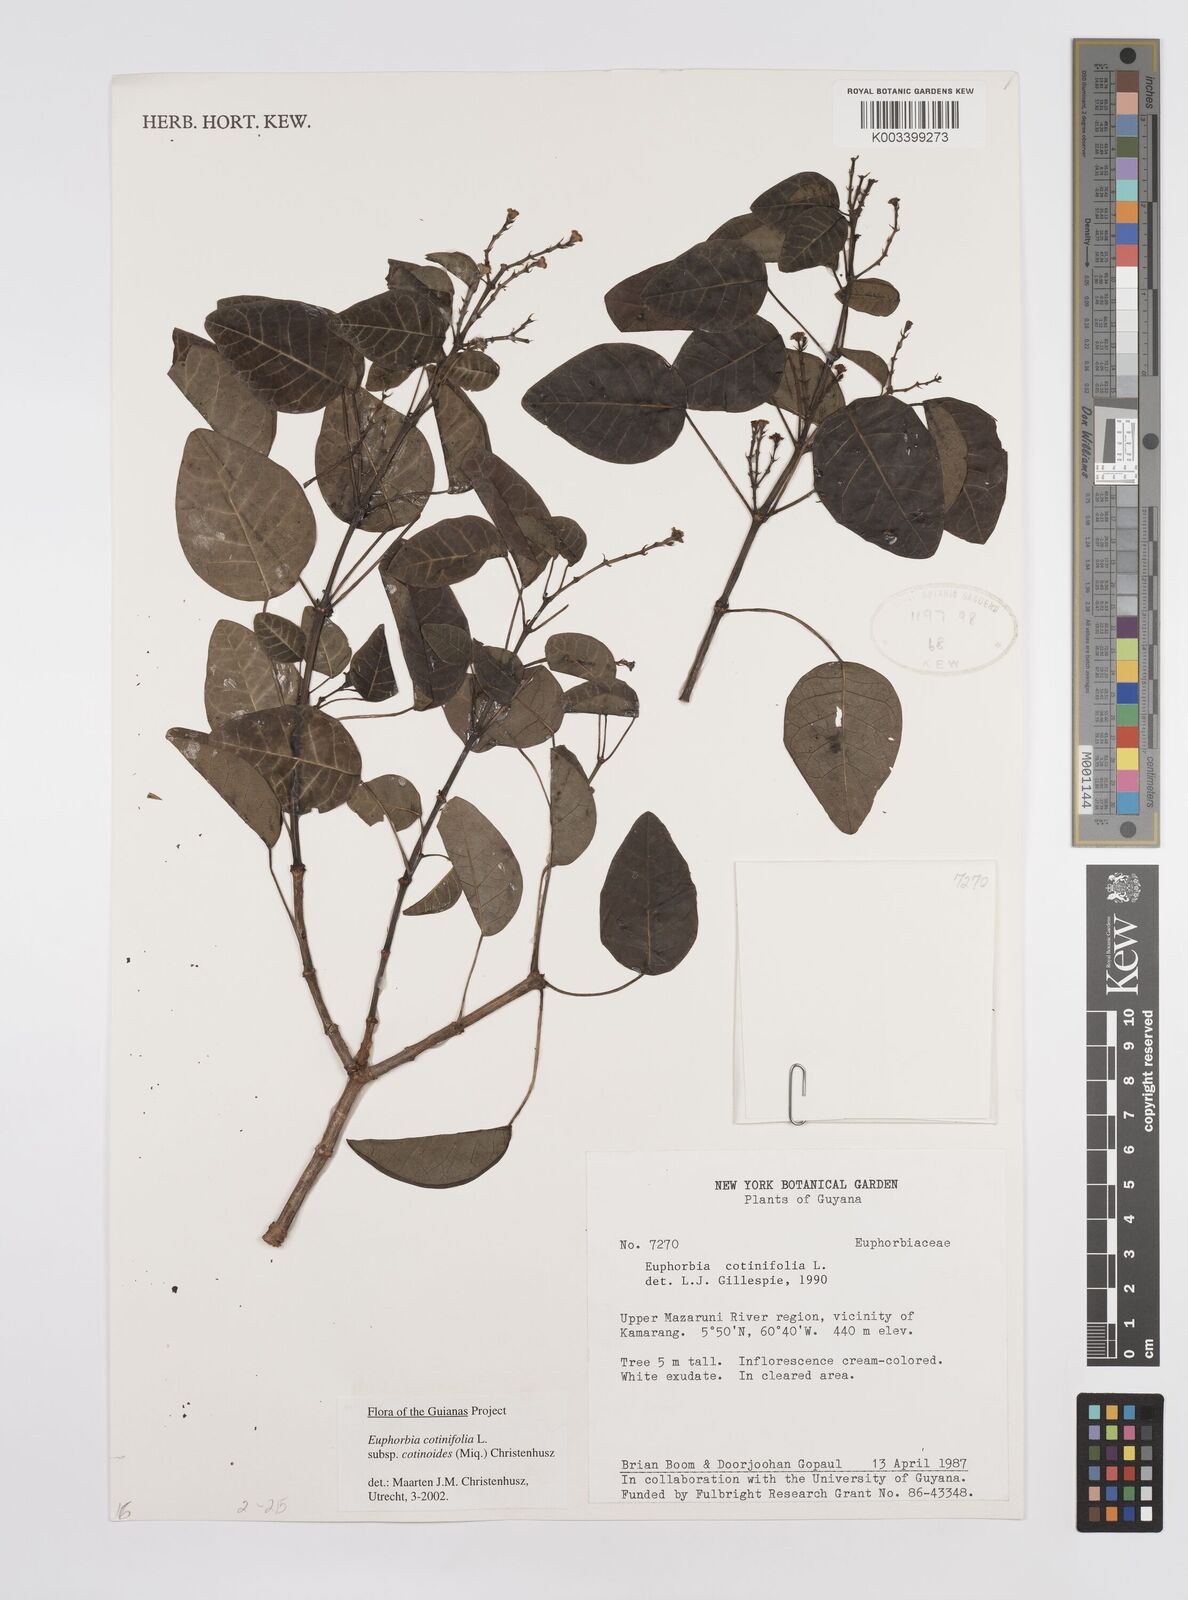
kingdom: Plantae
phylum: Tracheophyta
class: Magnoliopsida
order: Malpighiales
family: Euphorbiaceae
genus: Euphorbia
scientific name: Euphorbia cotinifolia
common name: Tropical smokebush
